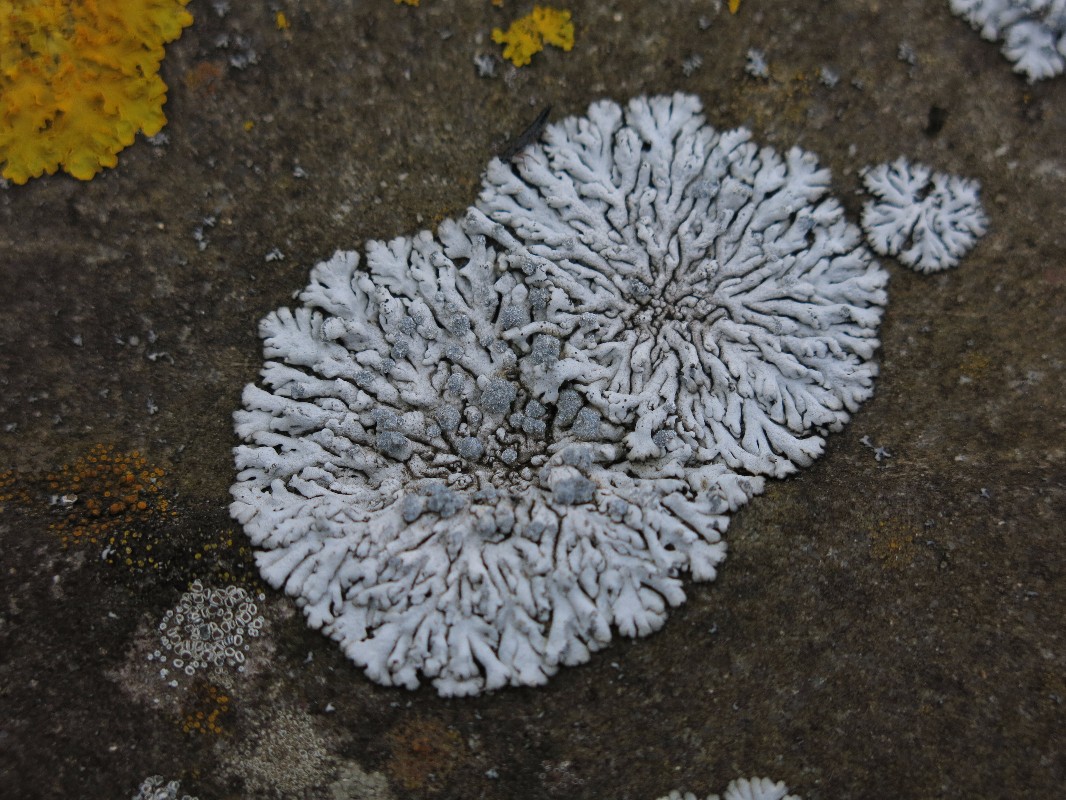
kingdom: Fungi
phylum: Ascomycota
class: Lecanoromycetes
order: Caliciales
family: Physciaceae
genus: Physcia
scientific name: Physcia caesia
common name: blågrå rosetlav
